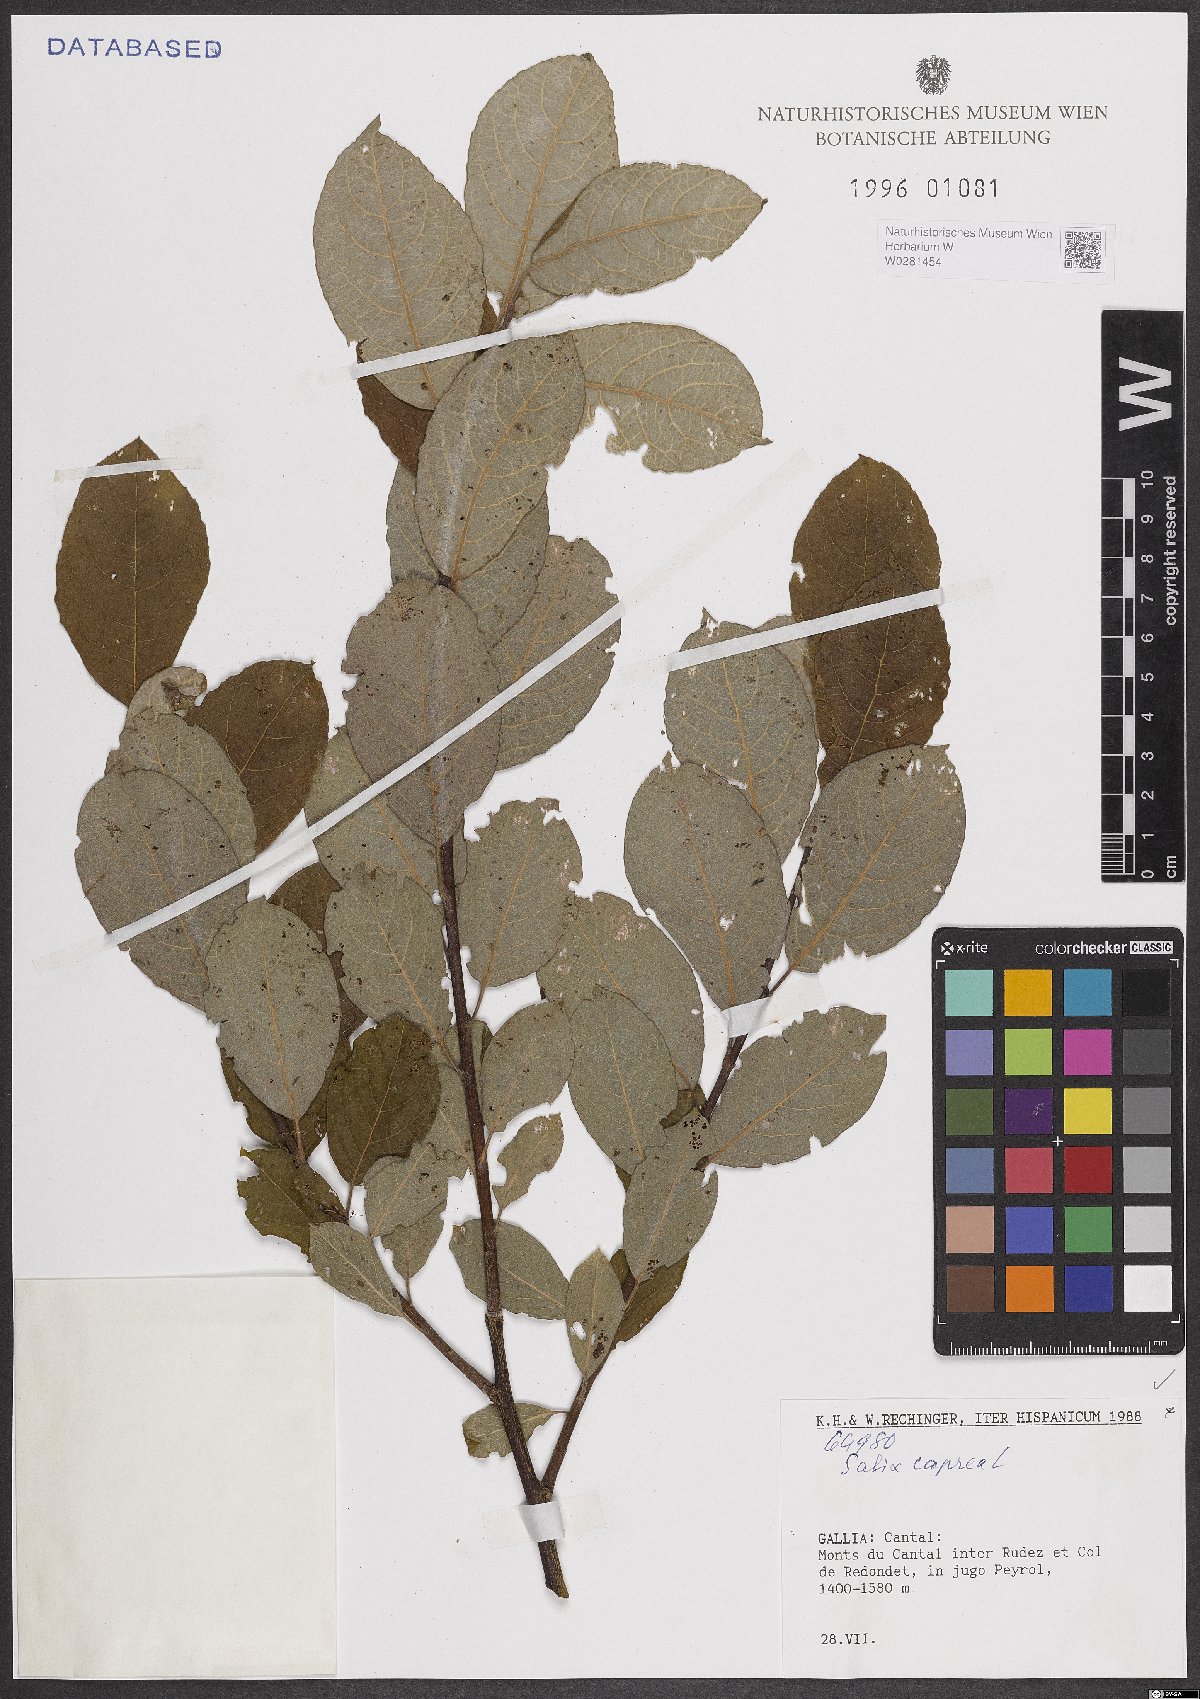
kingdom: Plantae
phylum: Tracheophyta
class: Magnoliopsida
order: Malpighiales
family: Salicaceae
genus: Salix
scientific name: Salix caprea
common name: Goat willow
